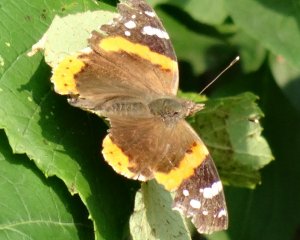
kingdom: Animalia
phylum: Arthropoda
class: Insecta
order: Lepidoptera
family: Nymphalidae
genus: Vanessa
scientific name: Vanessa atalanta
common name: Red Admiral
